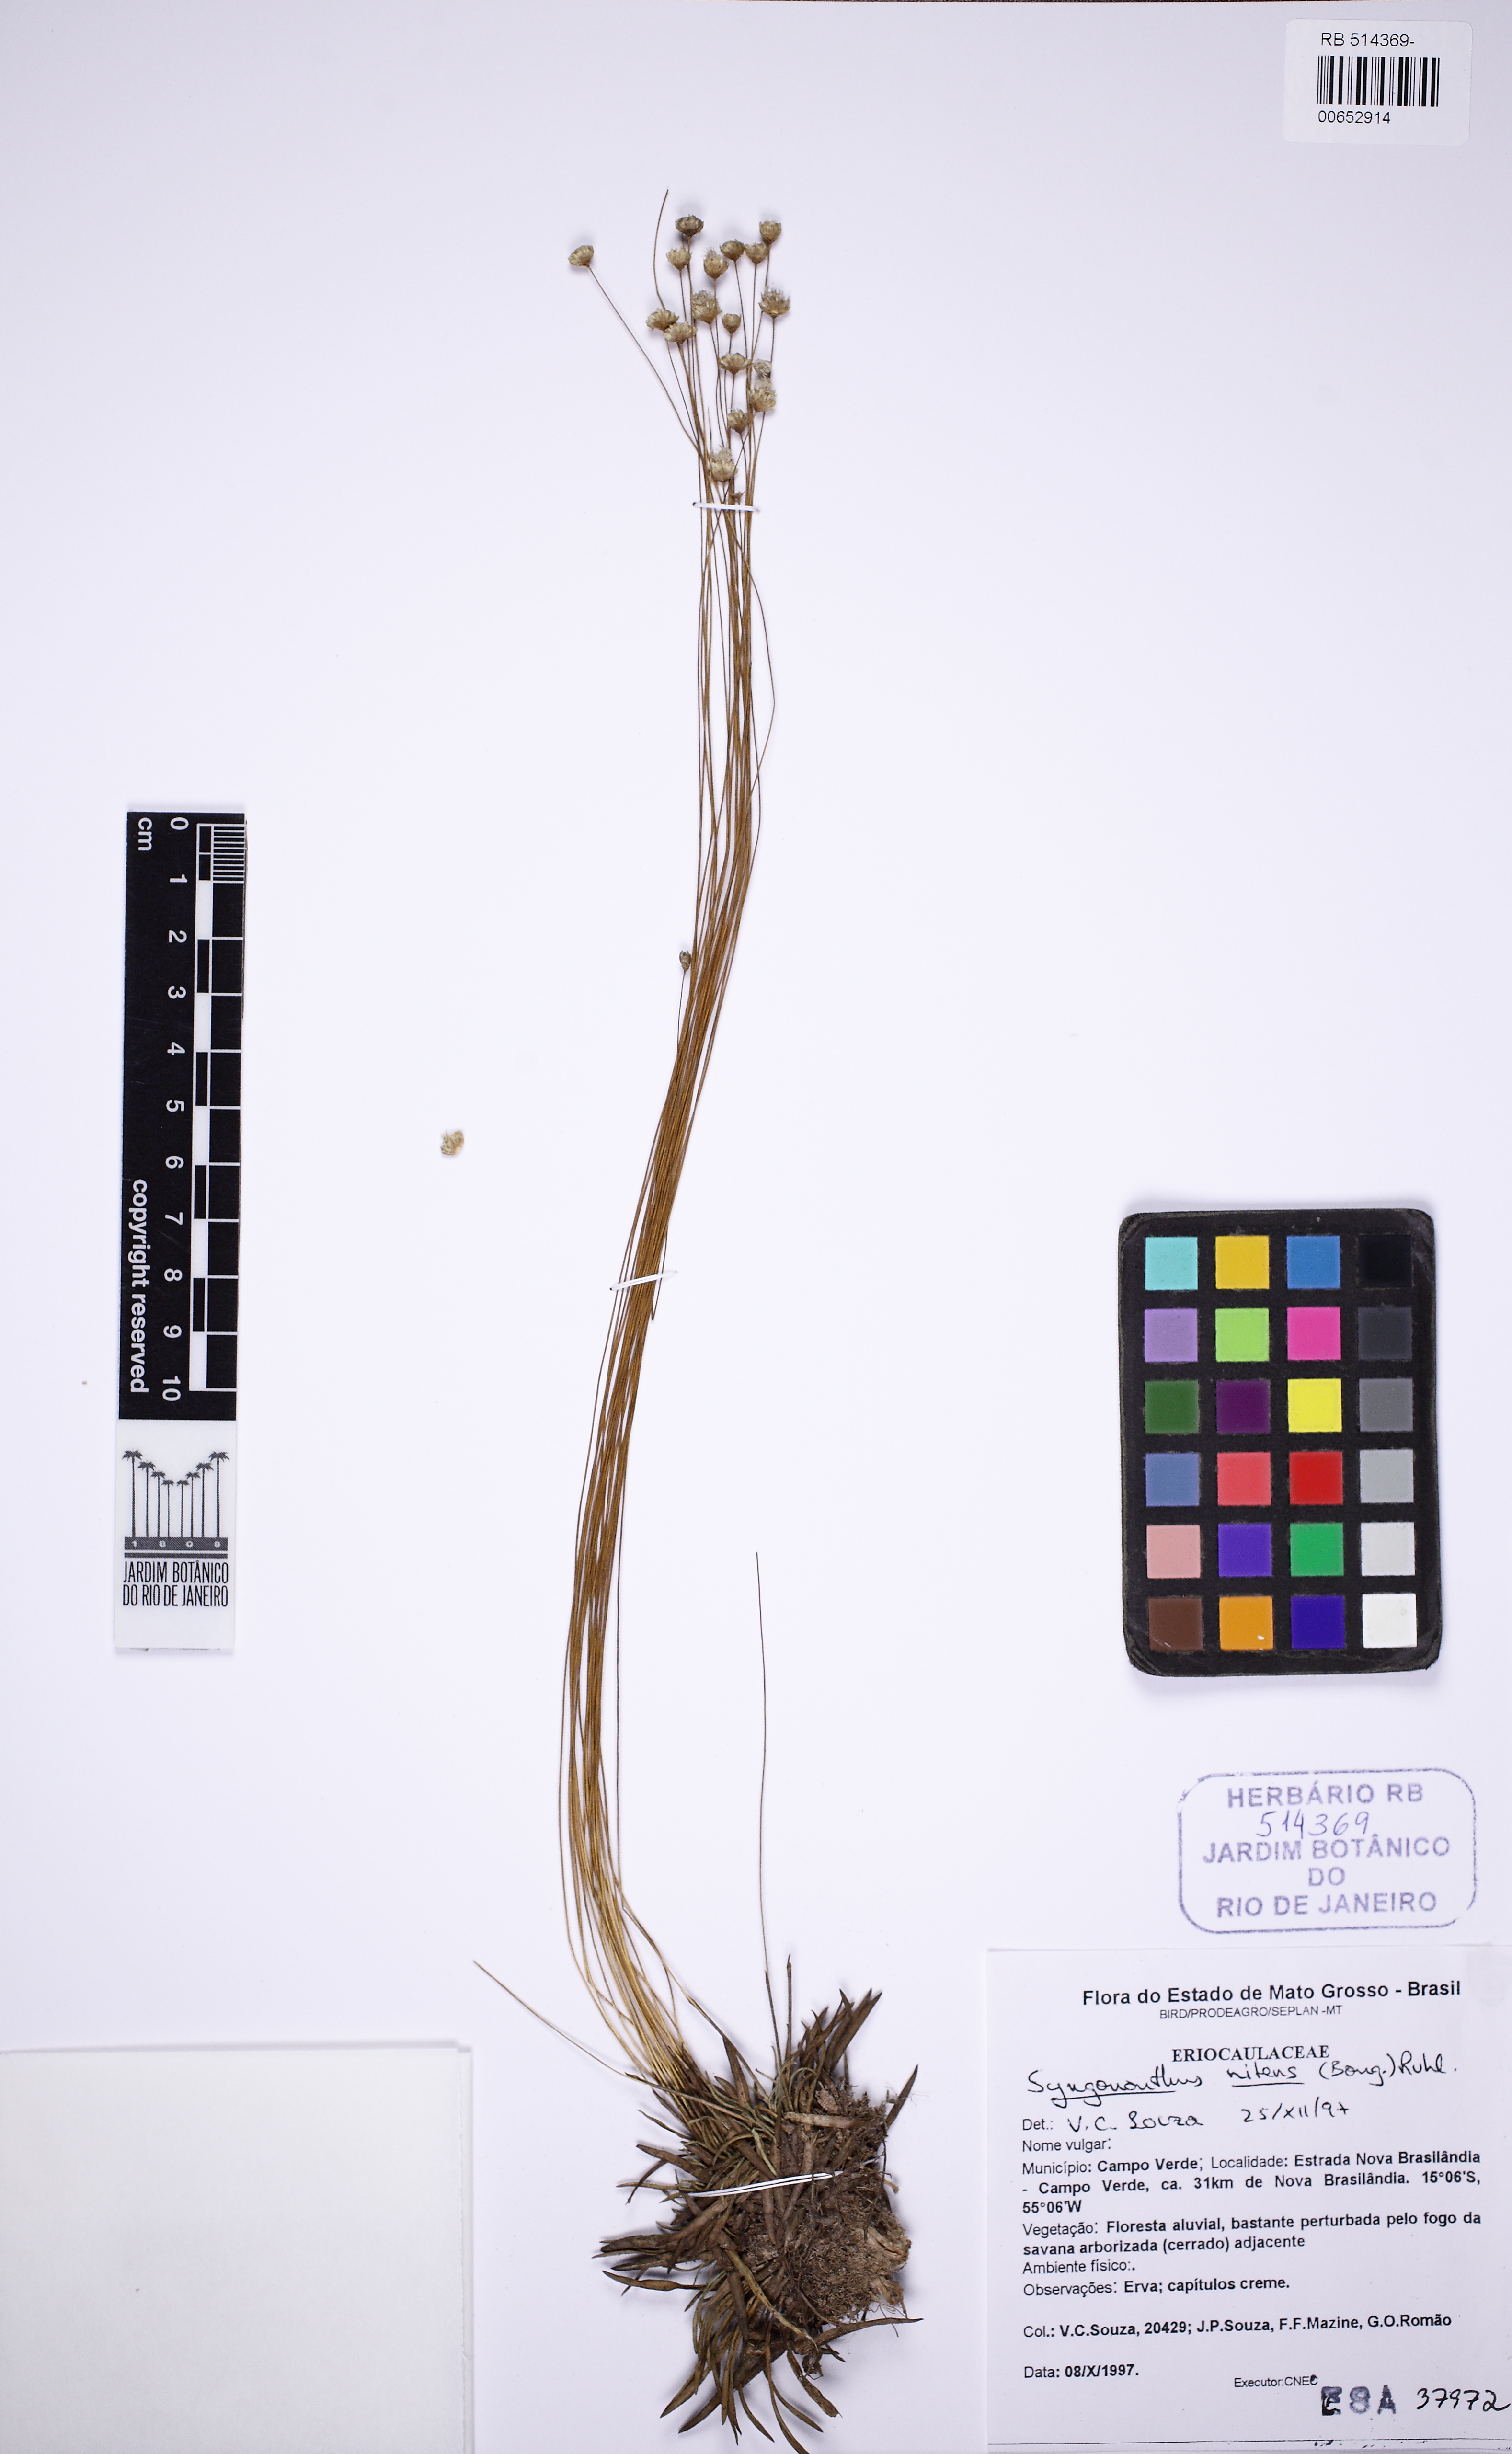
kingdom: Plantae
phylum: Tracheophyta
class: Liliopsida
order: Poales
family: Eriocaulaceae
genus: Syngonanthus
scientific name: Syngonanthus nitens
